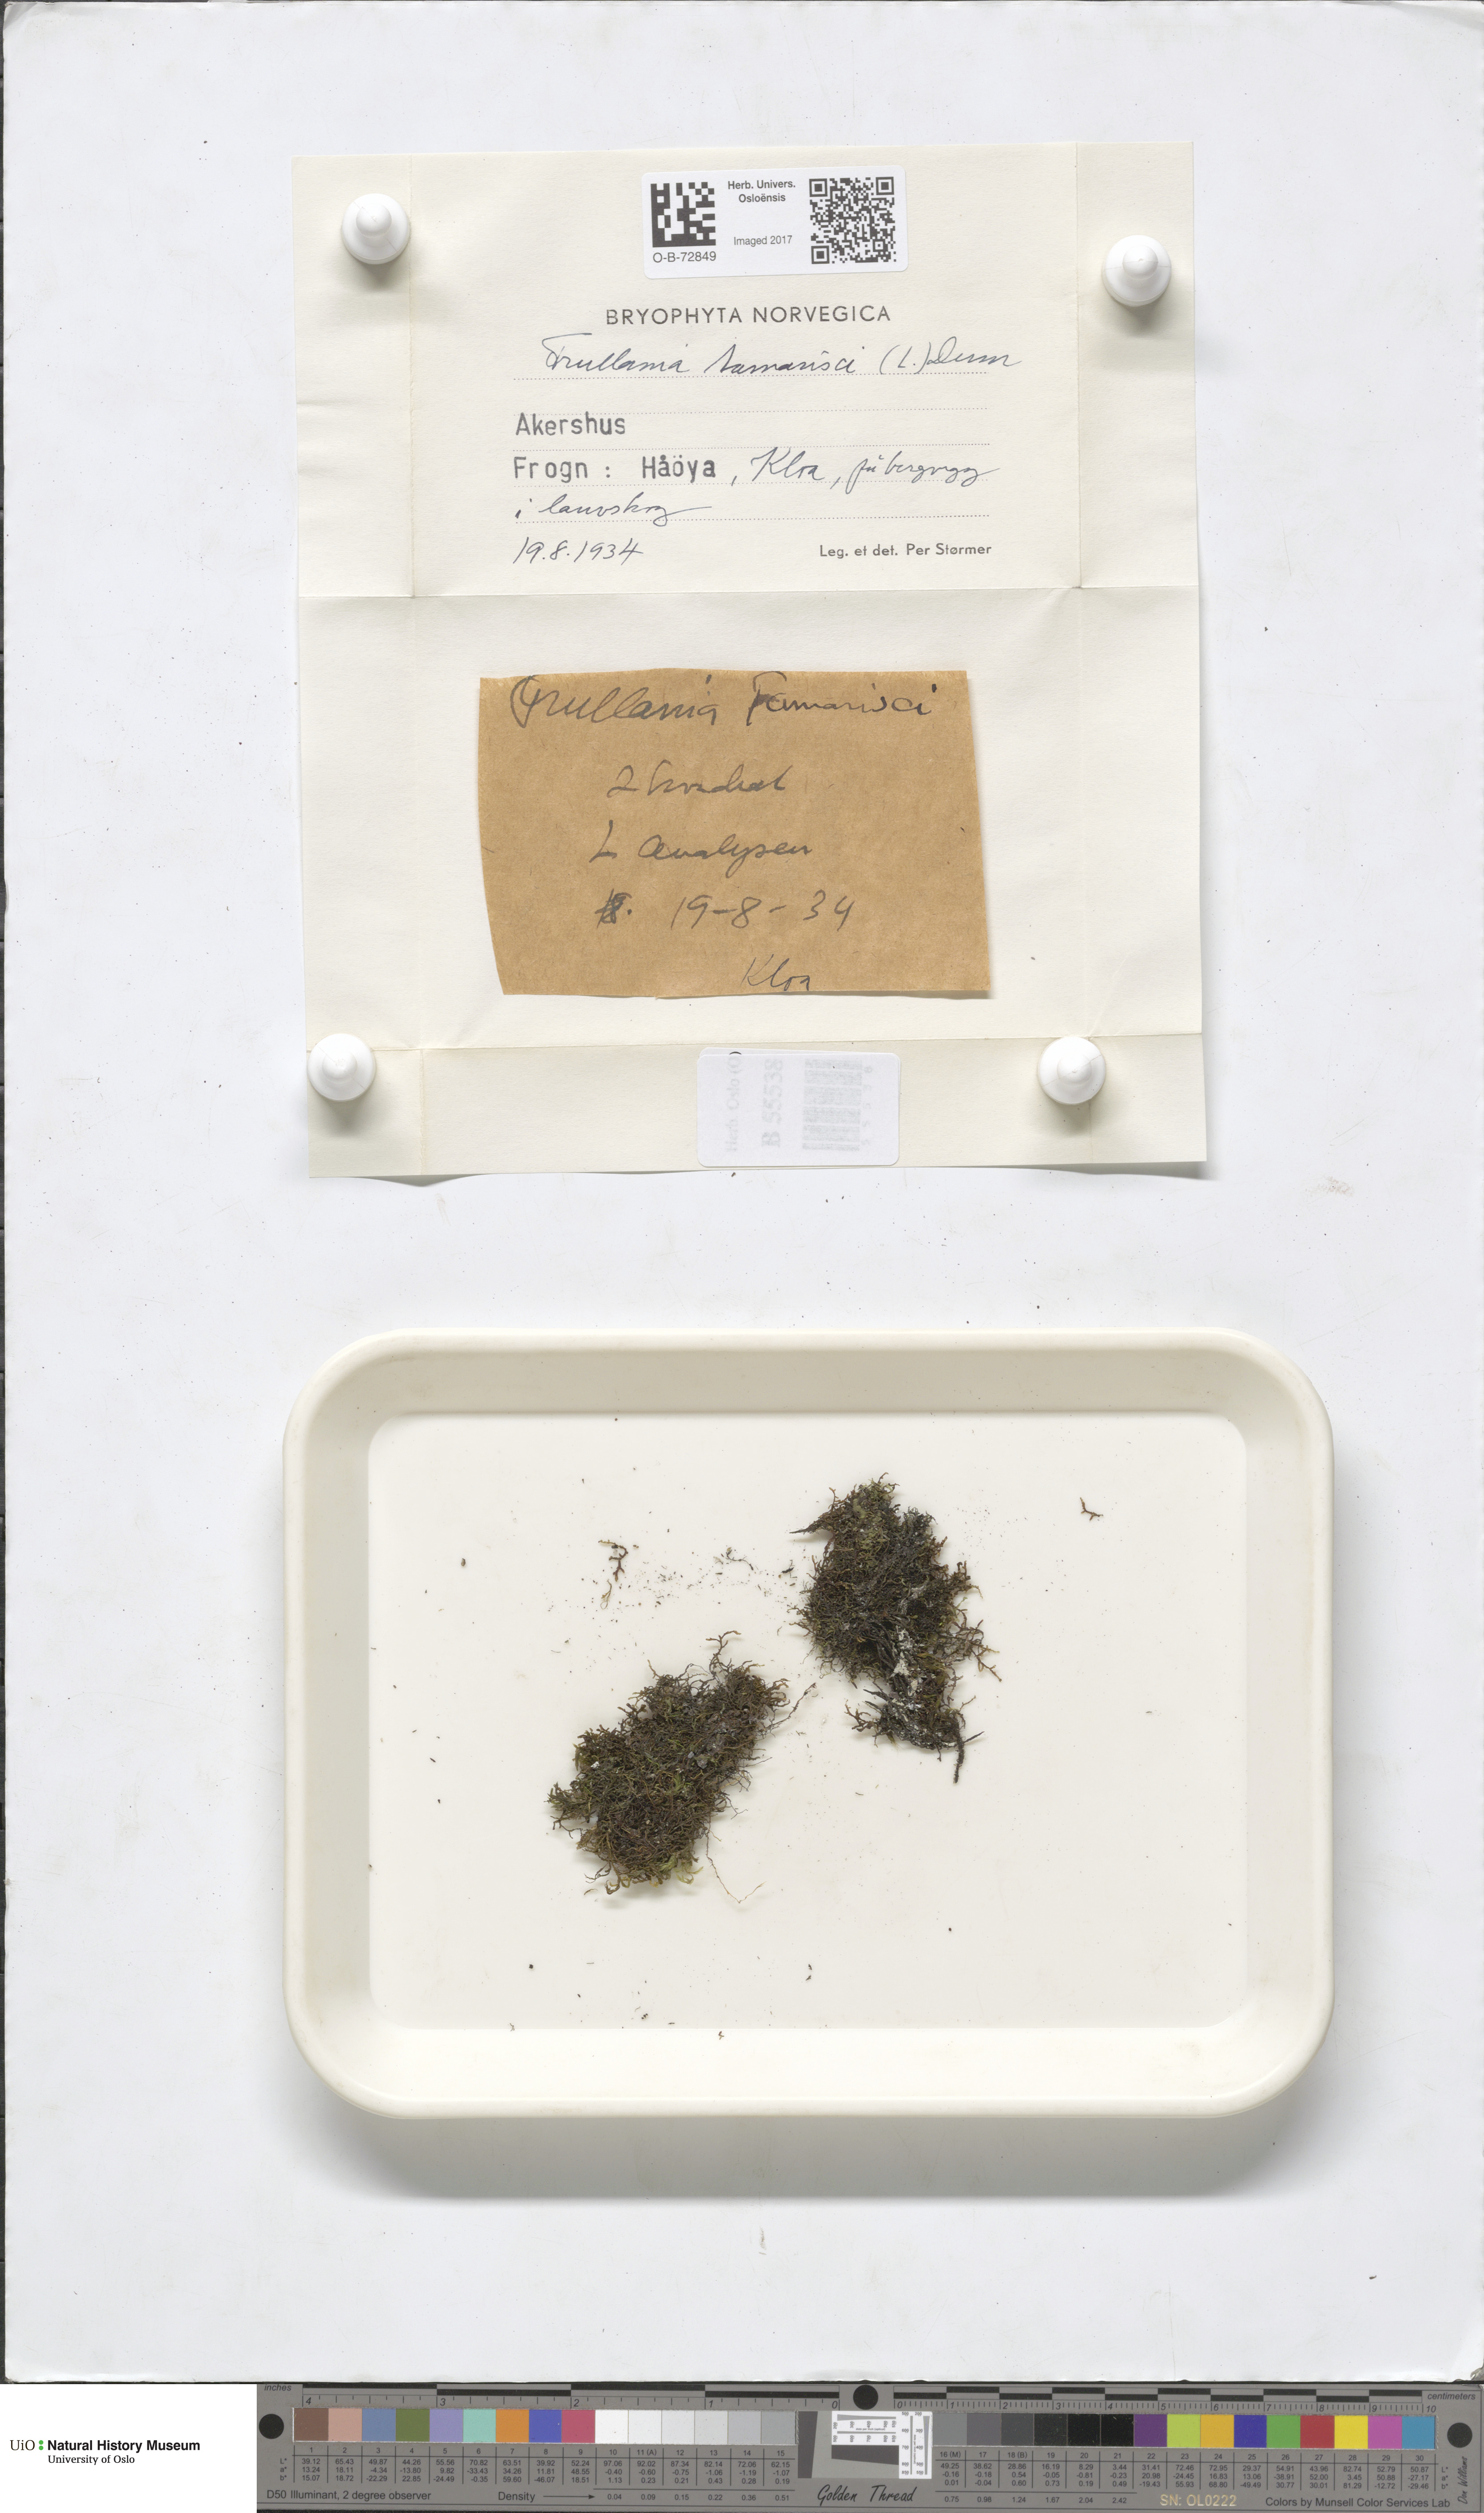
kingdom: Plantae
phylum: Marchantiophyta
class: Jungermanniopsida
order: Porellales
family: Frullaniaceae
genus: Frullania
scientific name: Frullania tamarisci
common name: Tamarisk scalewort
